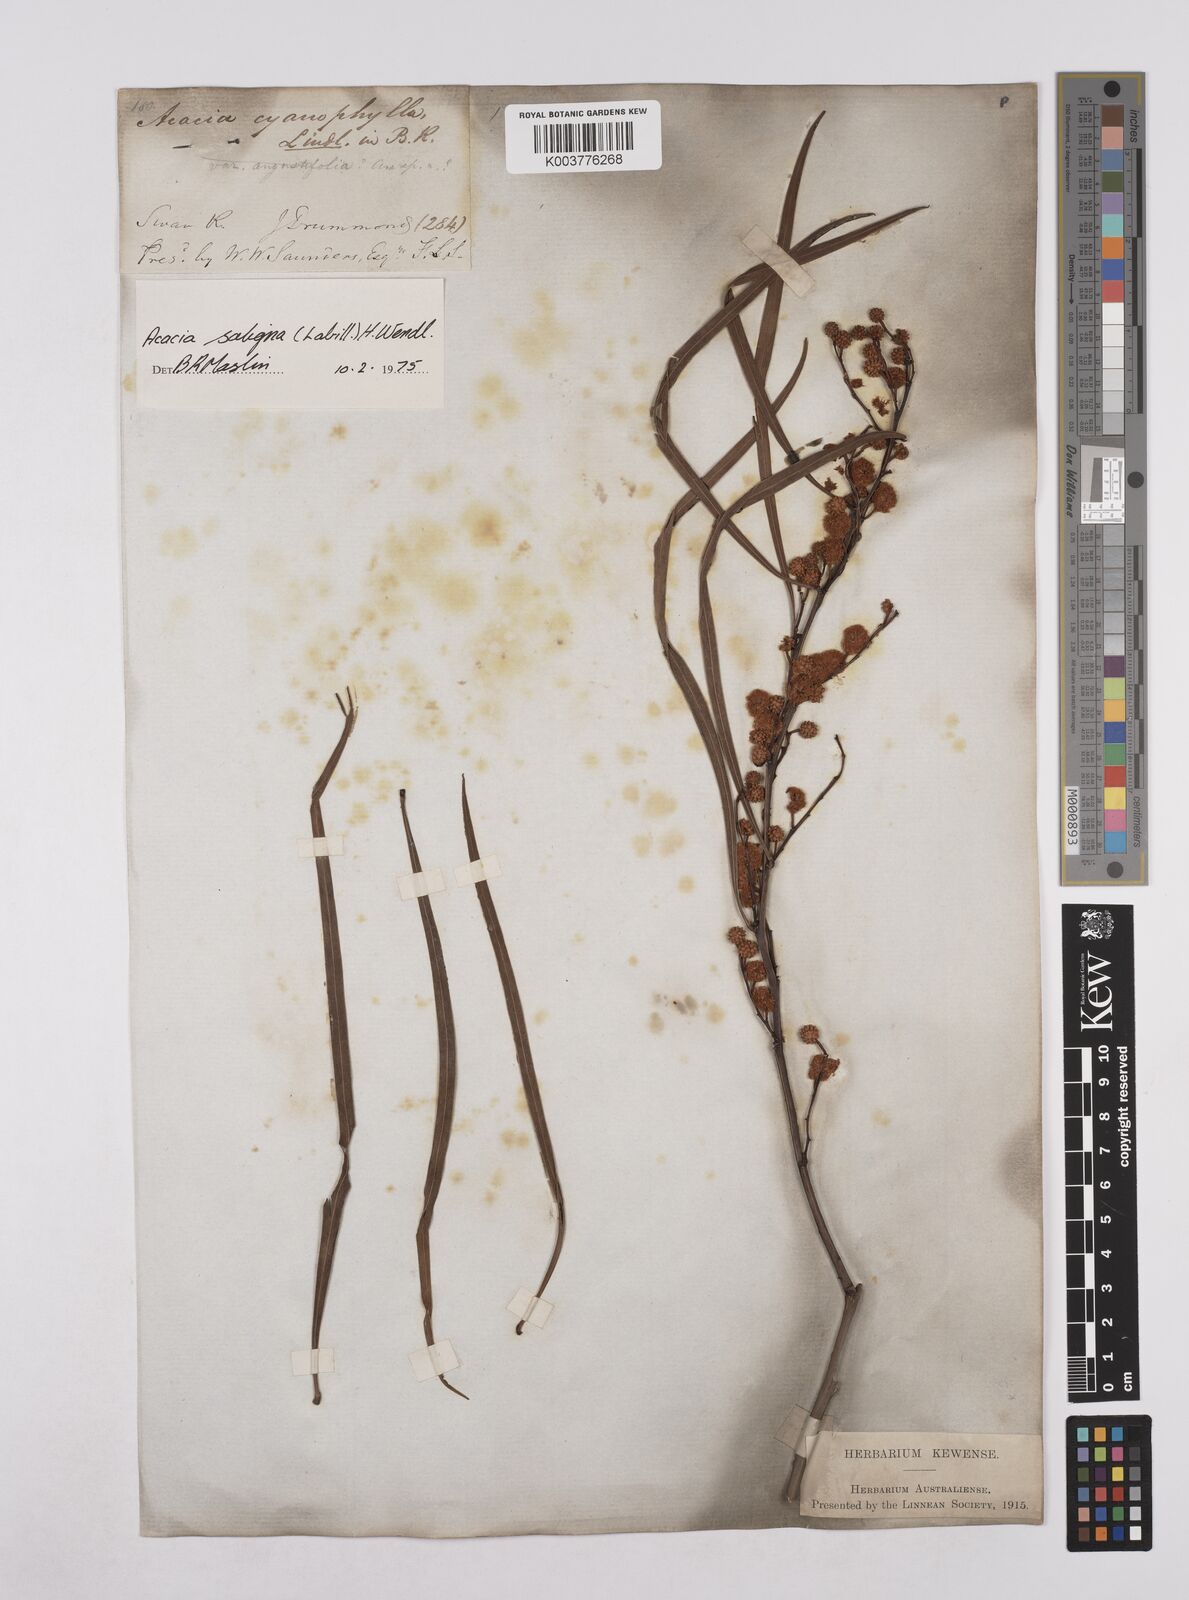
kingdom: Plantae
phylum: Tracheophyta
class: Magnoliopsida
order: Fabales
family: Fabaceae
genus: Acacia
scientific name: Acacia saligna
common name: Orange wattle
